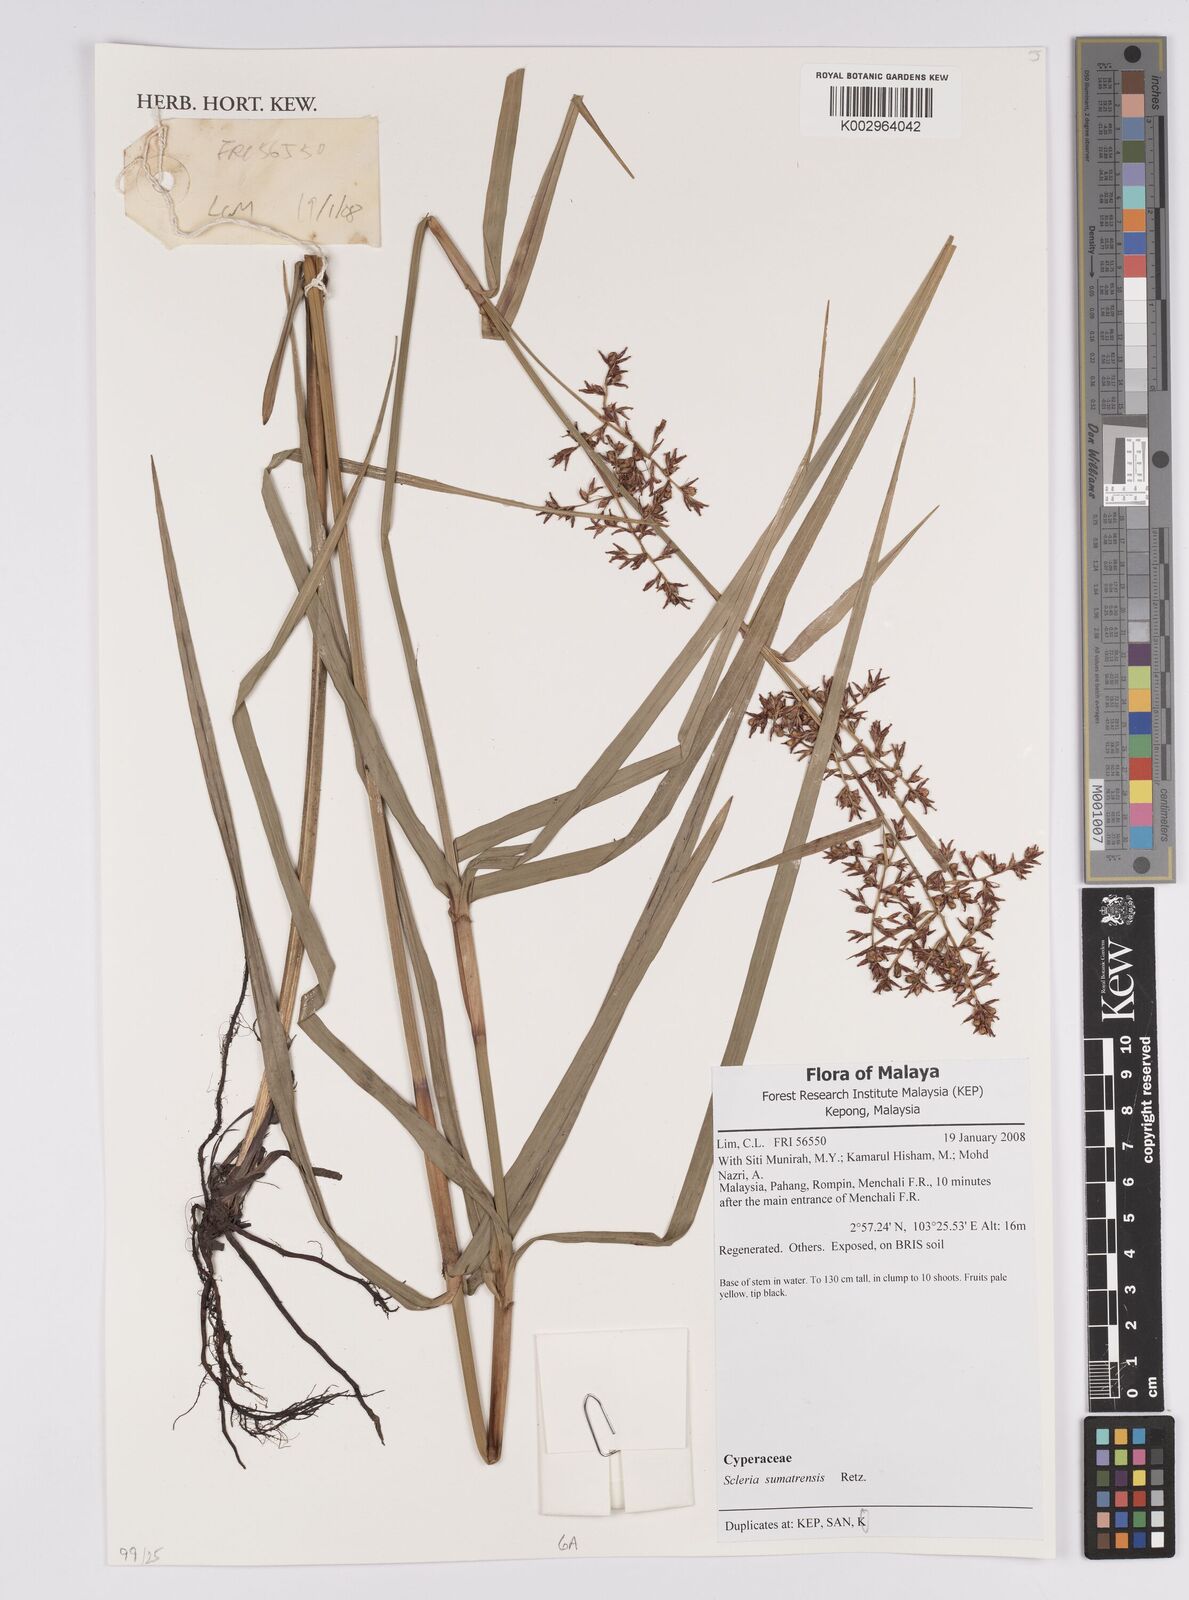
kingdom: Plantae
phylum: Tracheophyta
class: Liliopsida
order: Poales
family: Cyperaceae
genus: Scleria
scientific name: Scleria sumatrensis
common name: Sumatran scleria
